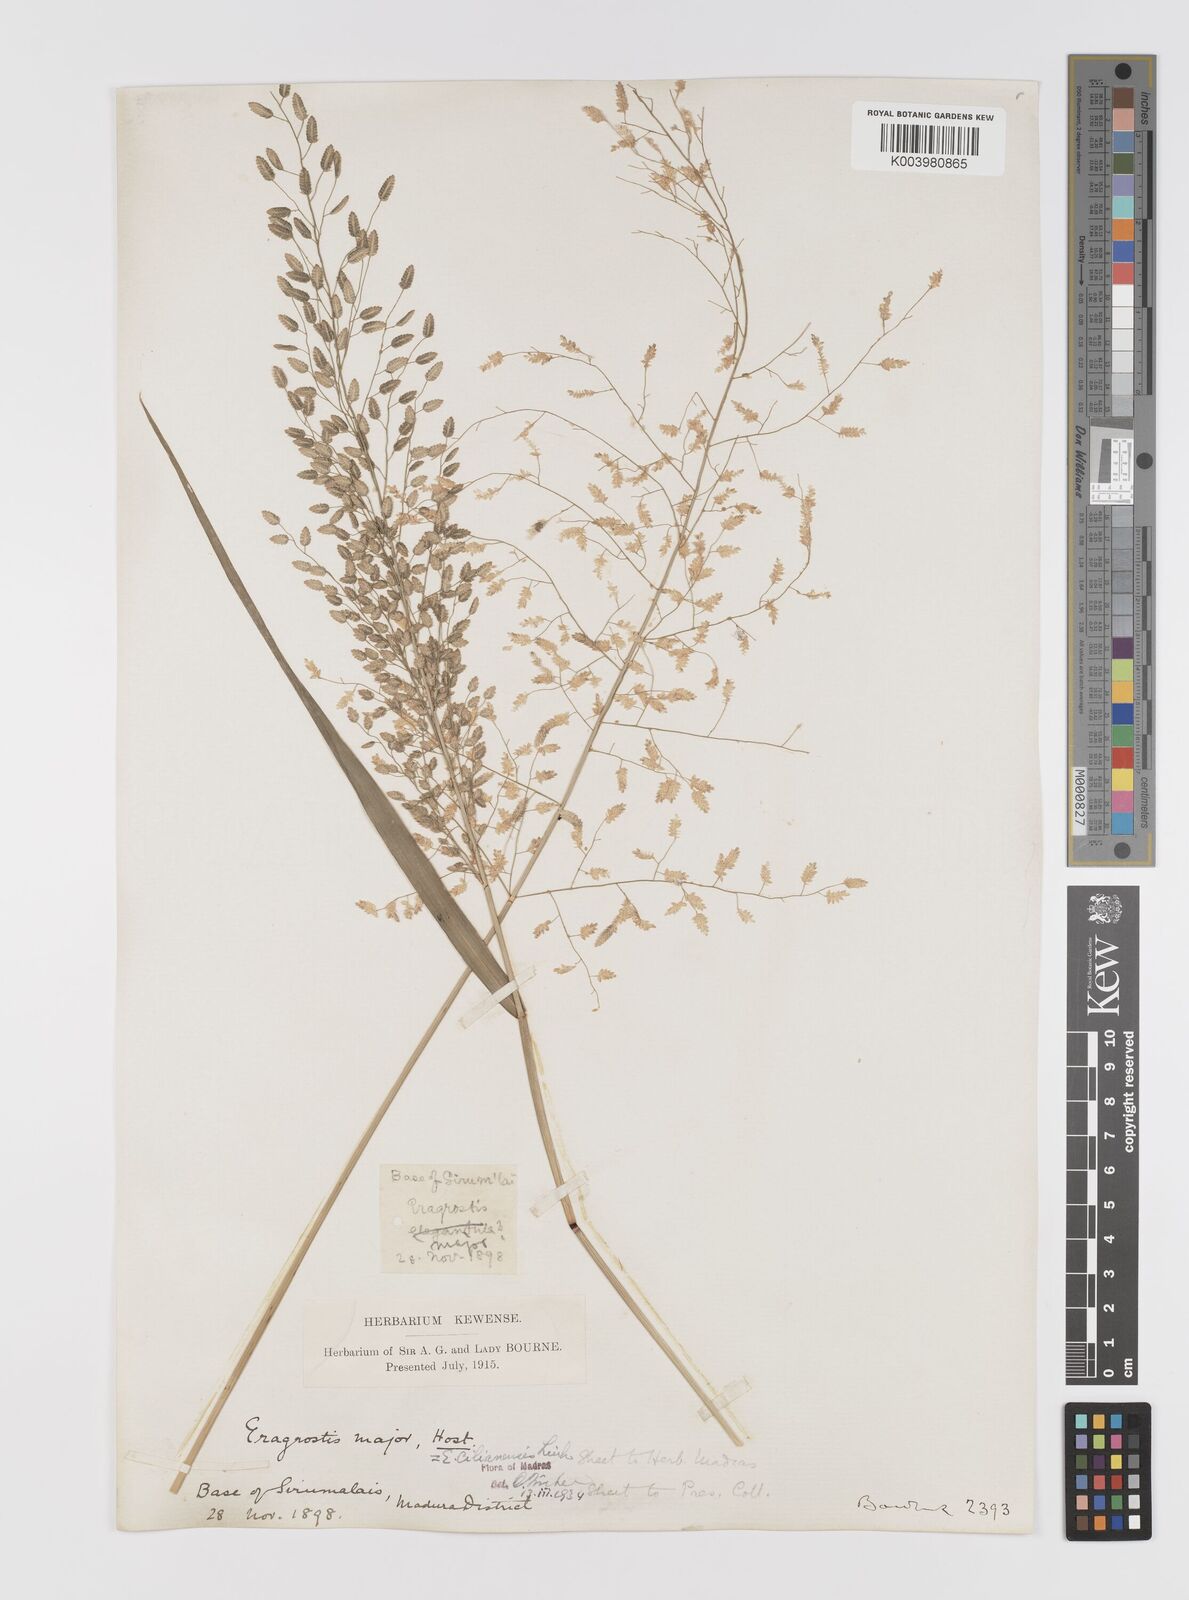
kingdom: Plantae
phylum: Tracheophyta
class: Liliopsida
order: Poales
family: Poaceae
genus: Eragrostis
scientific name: Eragrostis cilianensis
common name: Stinkgrass
